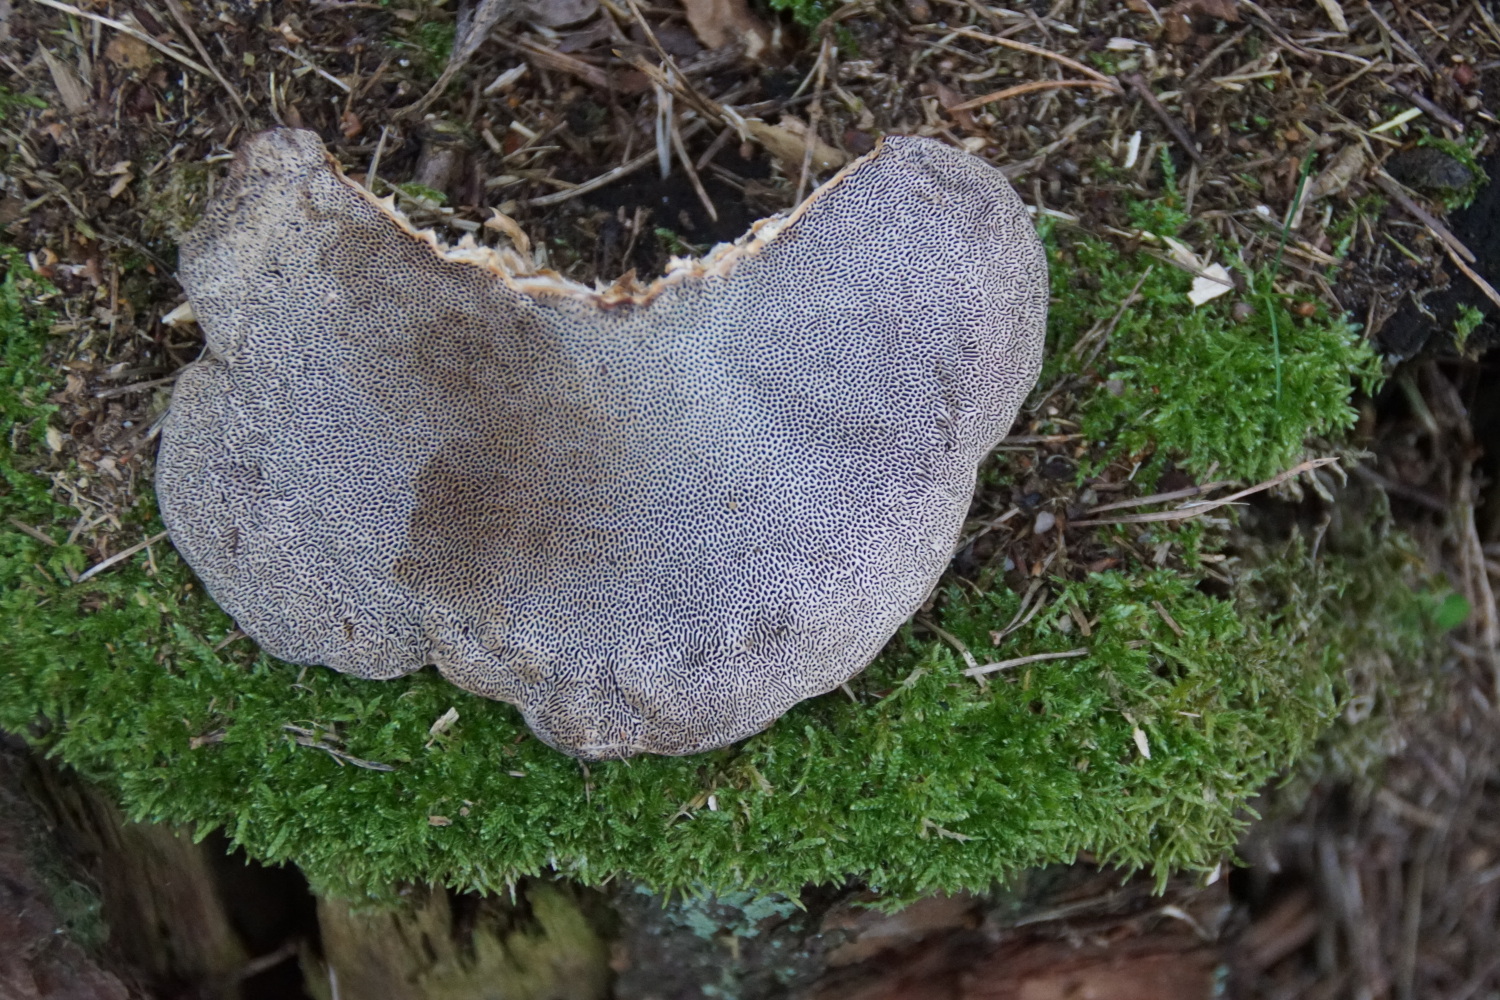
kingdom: Fungi
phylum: Basidiomycota
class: Agaricomycetes
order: Polyporales
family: Polyporaceae
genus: Daedaleopsis
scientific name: Daedaleopsis confragosa
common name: rødmende læderporesvamp
